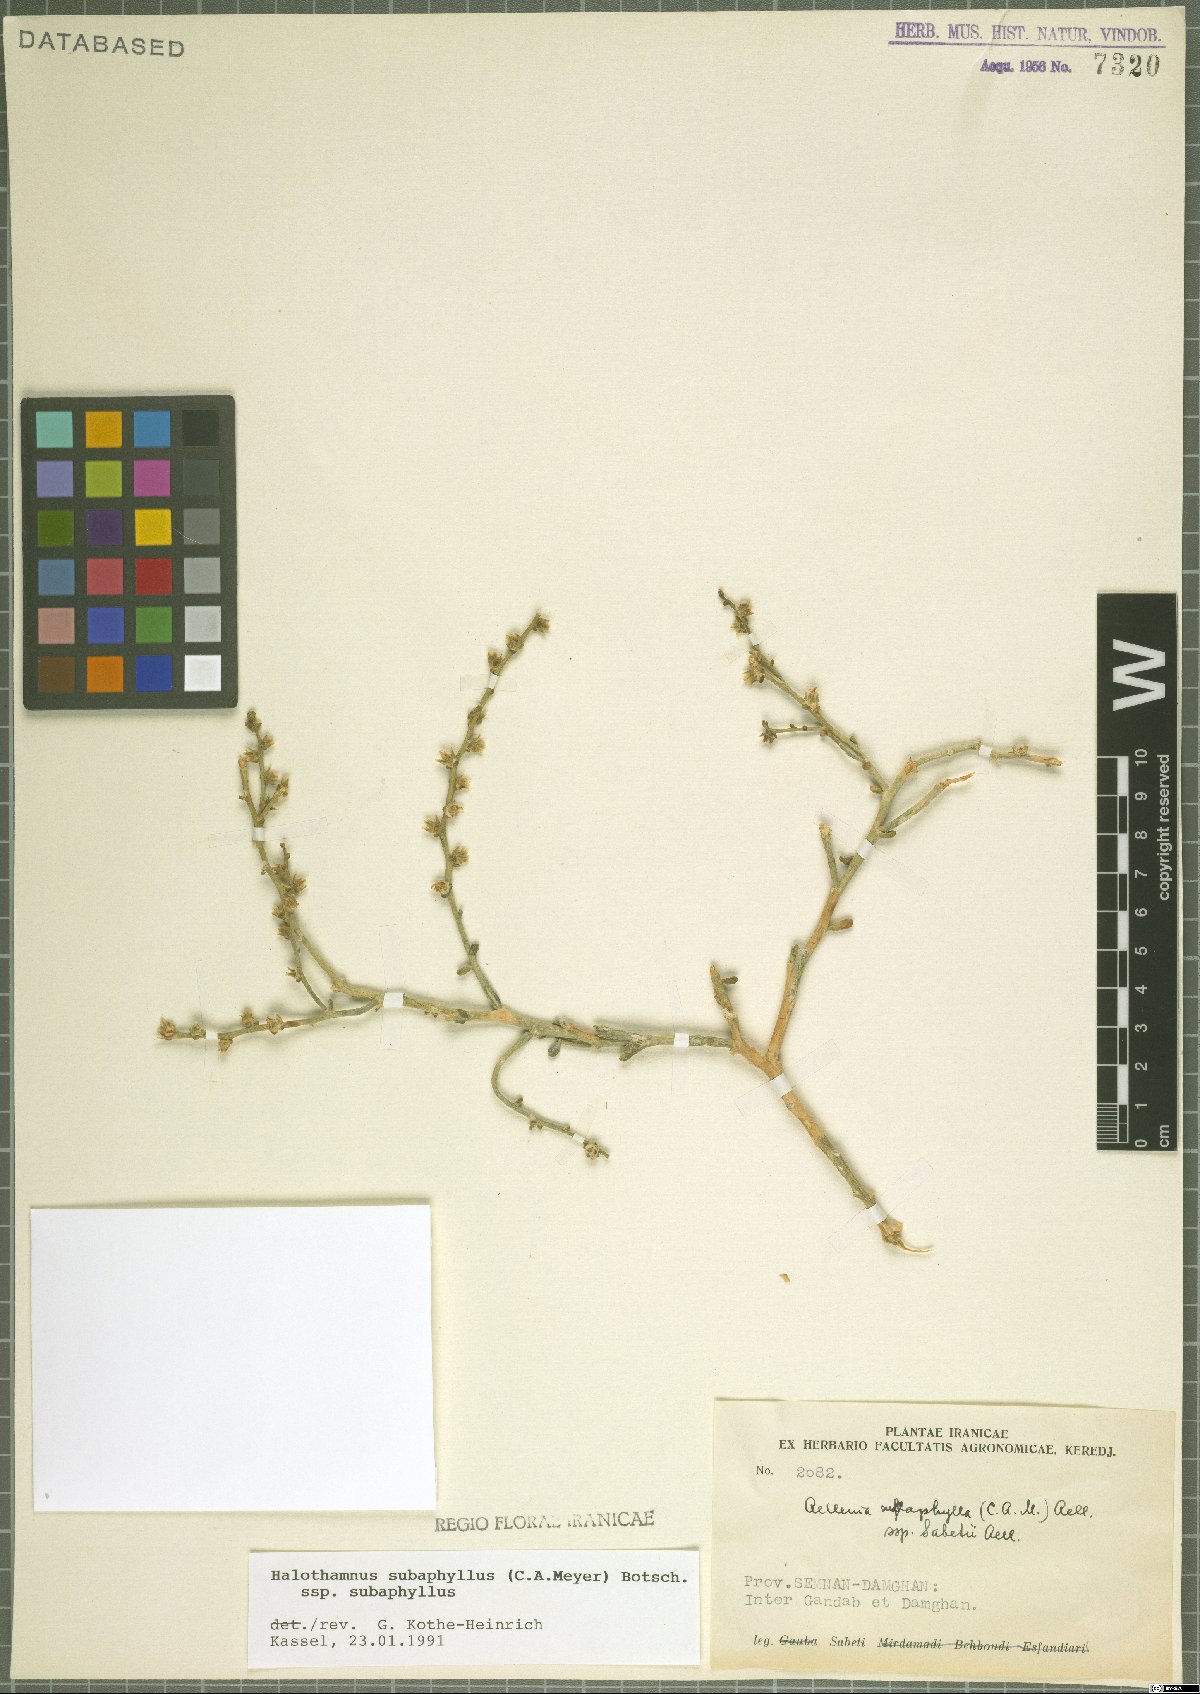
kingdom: Plantae
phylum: Tracheophyta
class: Magnoliopsida
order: Caryophyllales
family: Amaranthaceae
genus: Halothamnus
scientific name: Halothamnus subaphyllus
